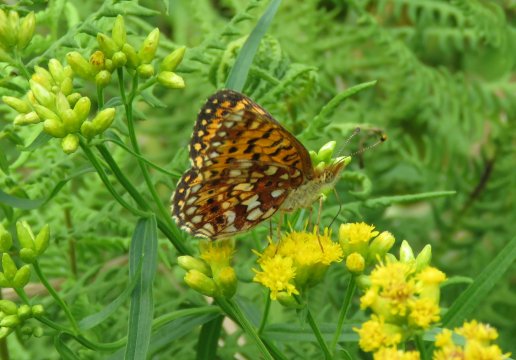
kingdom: Animalia
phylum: Arthropoda
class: Insecta
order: Lepidoptera
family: Nymphalidae
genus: Boloria
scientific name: Boloria selene
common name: Silver-bordered Fritillary
